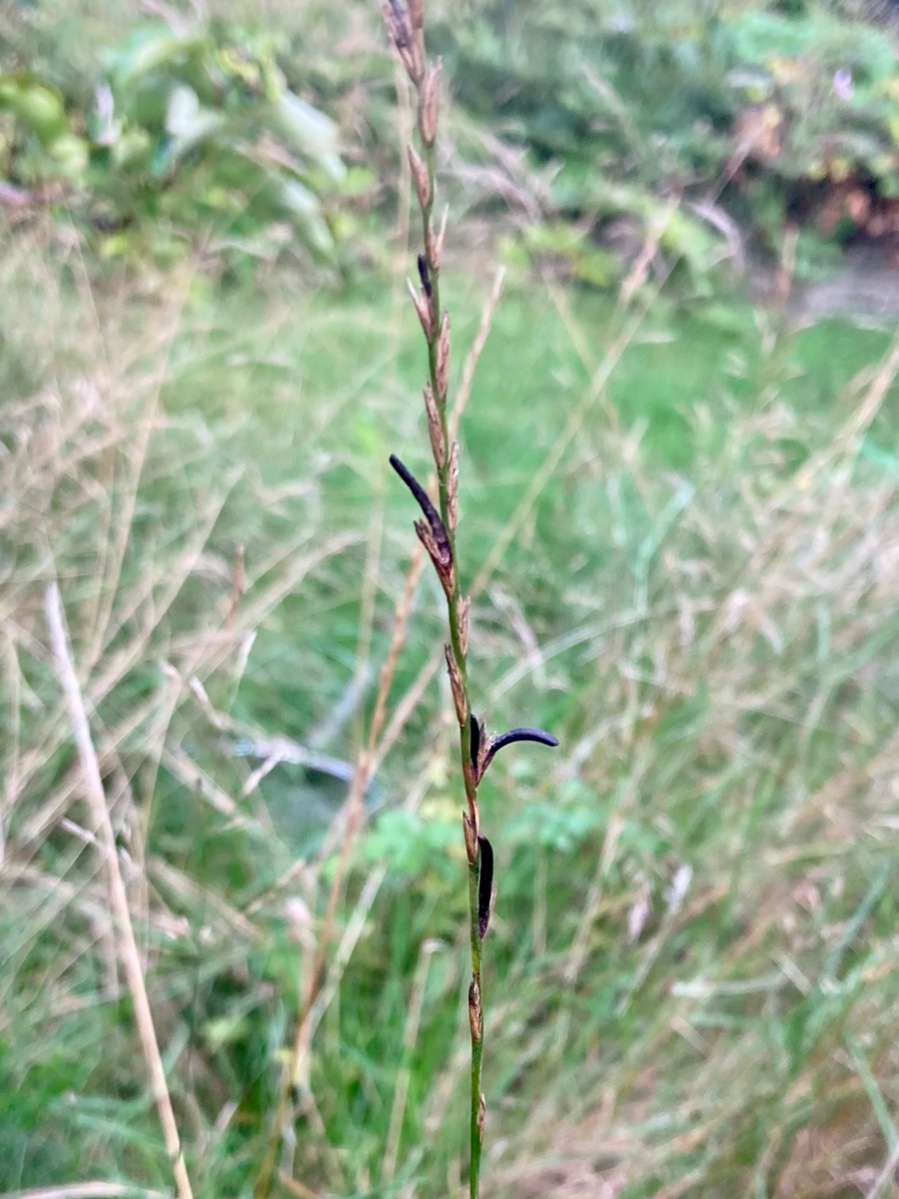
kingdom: Fungi
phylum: Ascomycota
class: Sordariomycetes
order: Hypocreales
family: Clavicipitaceae
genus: Claviceps
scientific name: Claviceps purpurea
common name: almindelig meldrøjer
